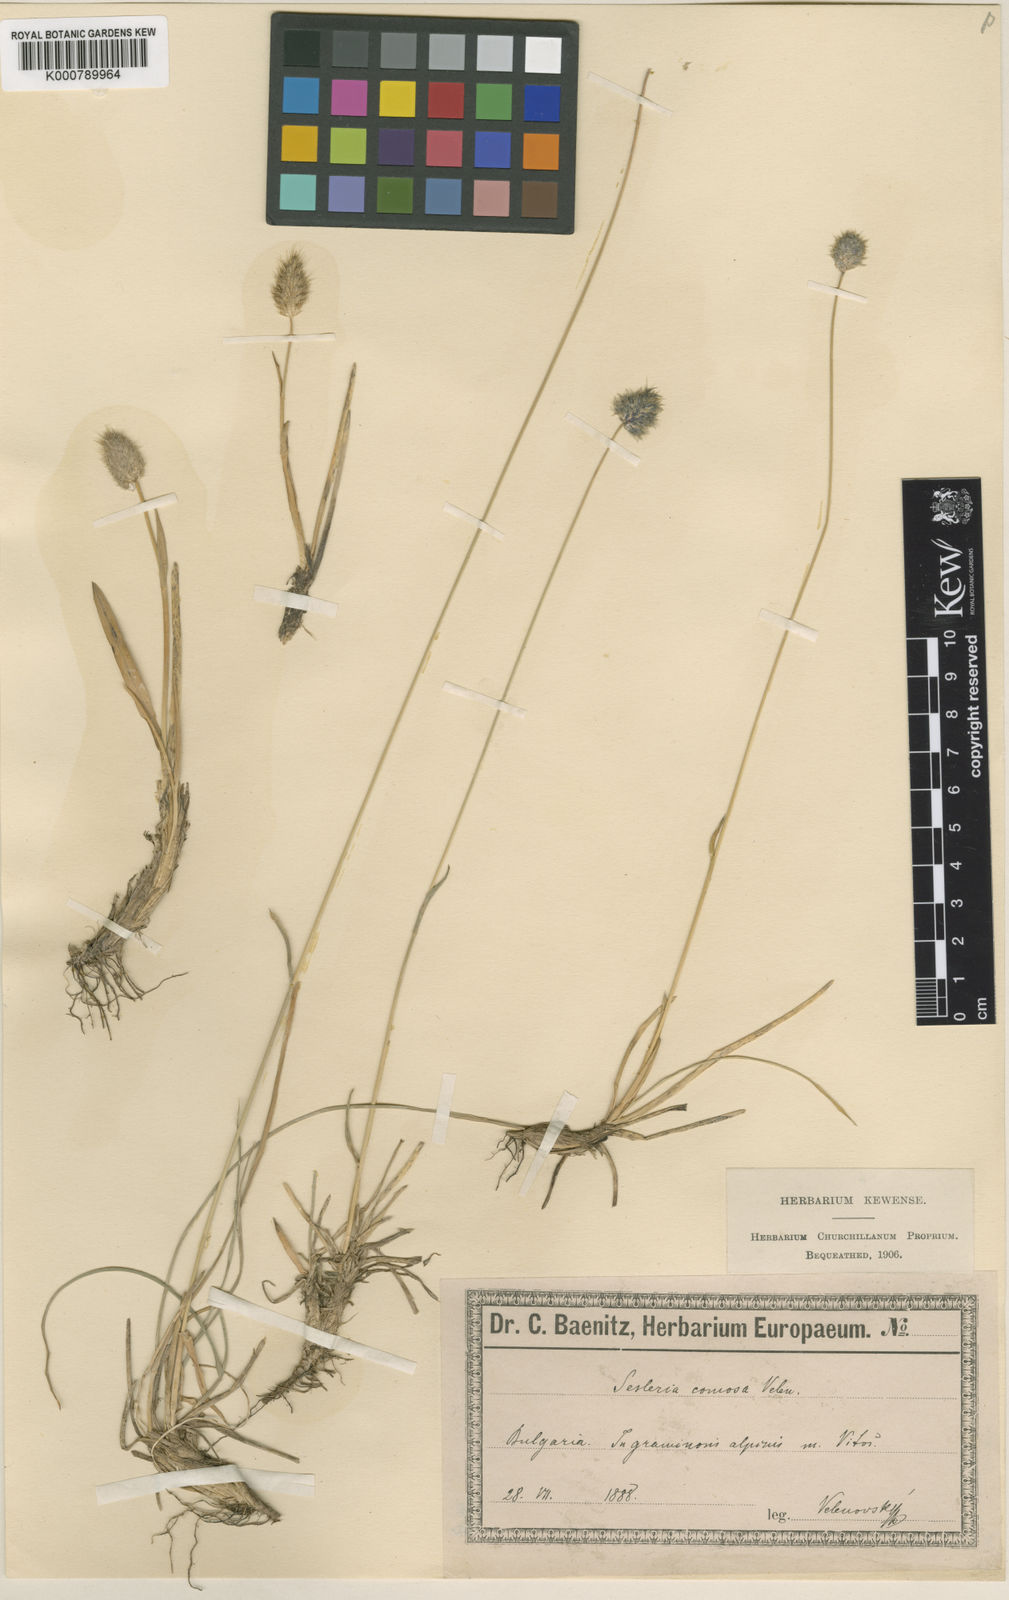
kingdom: Plantae
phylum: Tracheophyta
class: Liliopsida
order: Poales
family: Poaceae
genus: Sesleria
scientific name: Sesleria comosa
